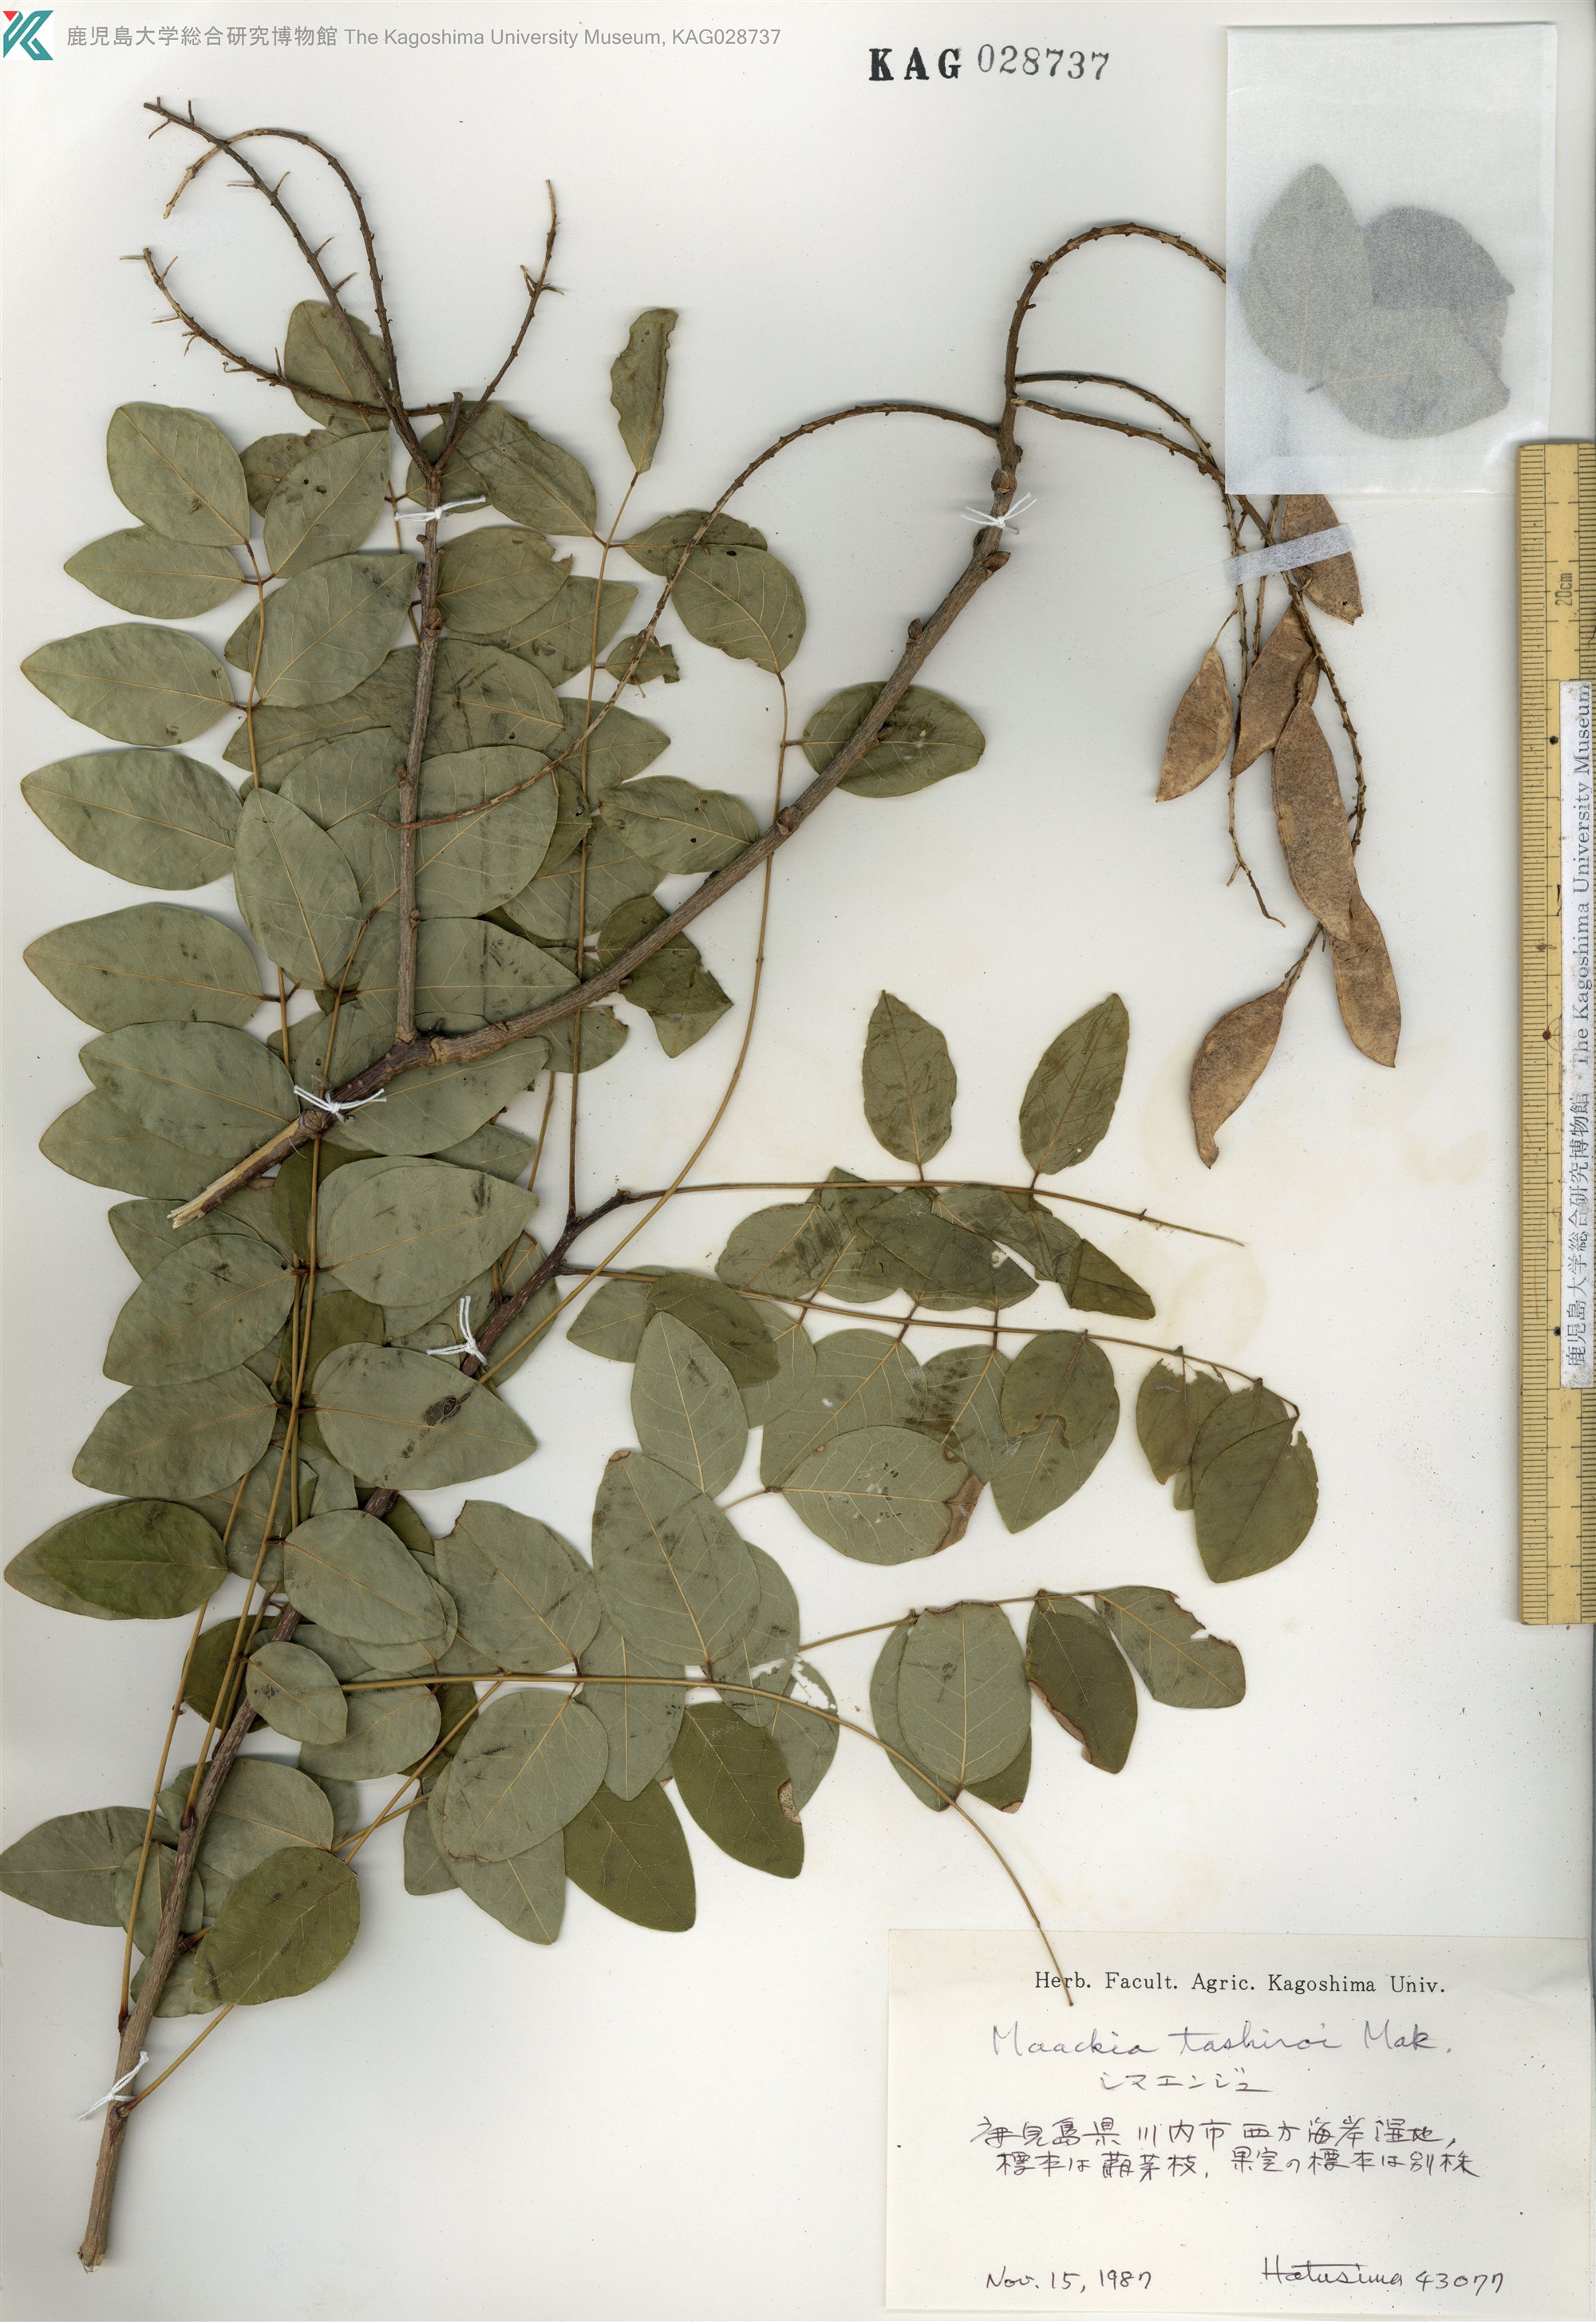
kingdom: Plantae
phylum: Tracheophyta
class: Magnoliopsida
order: Fabales
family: Fabaceae
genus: Maackia
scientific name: Maackia tashiroi
